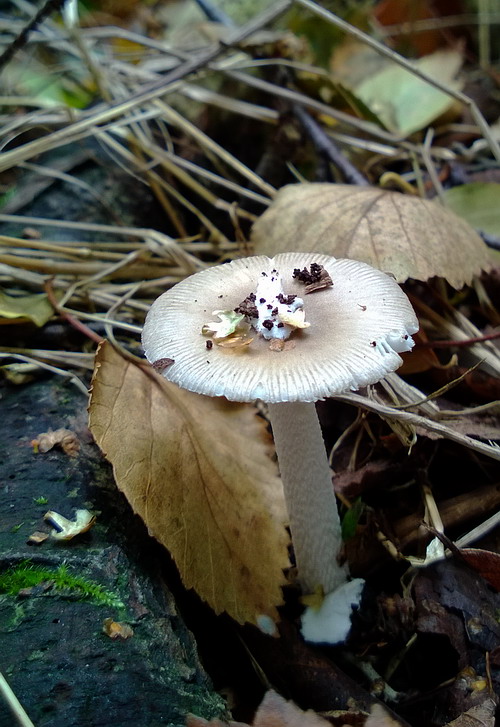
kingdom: Fungi
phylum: Basidiomycota
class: Agaricomycetes
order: Agaricales
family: Amanitaceae
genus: Amanita
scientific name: Amanita vaginata
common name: grå kam-fluesvamp
